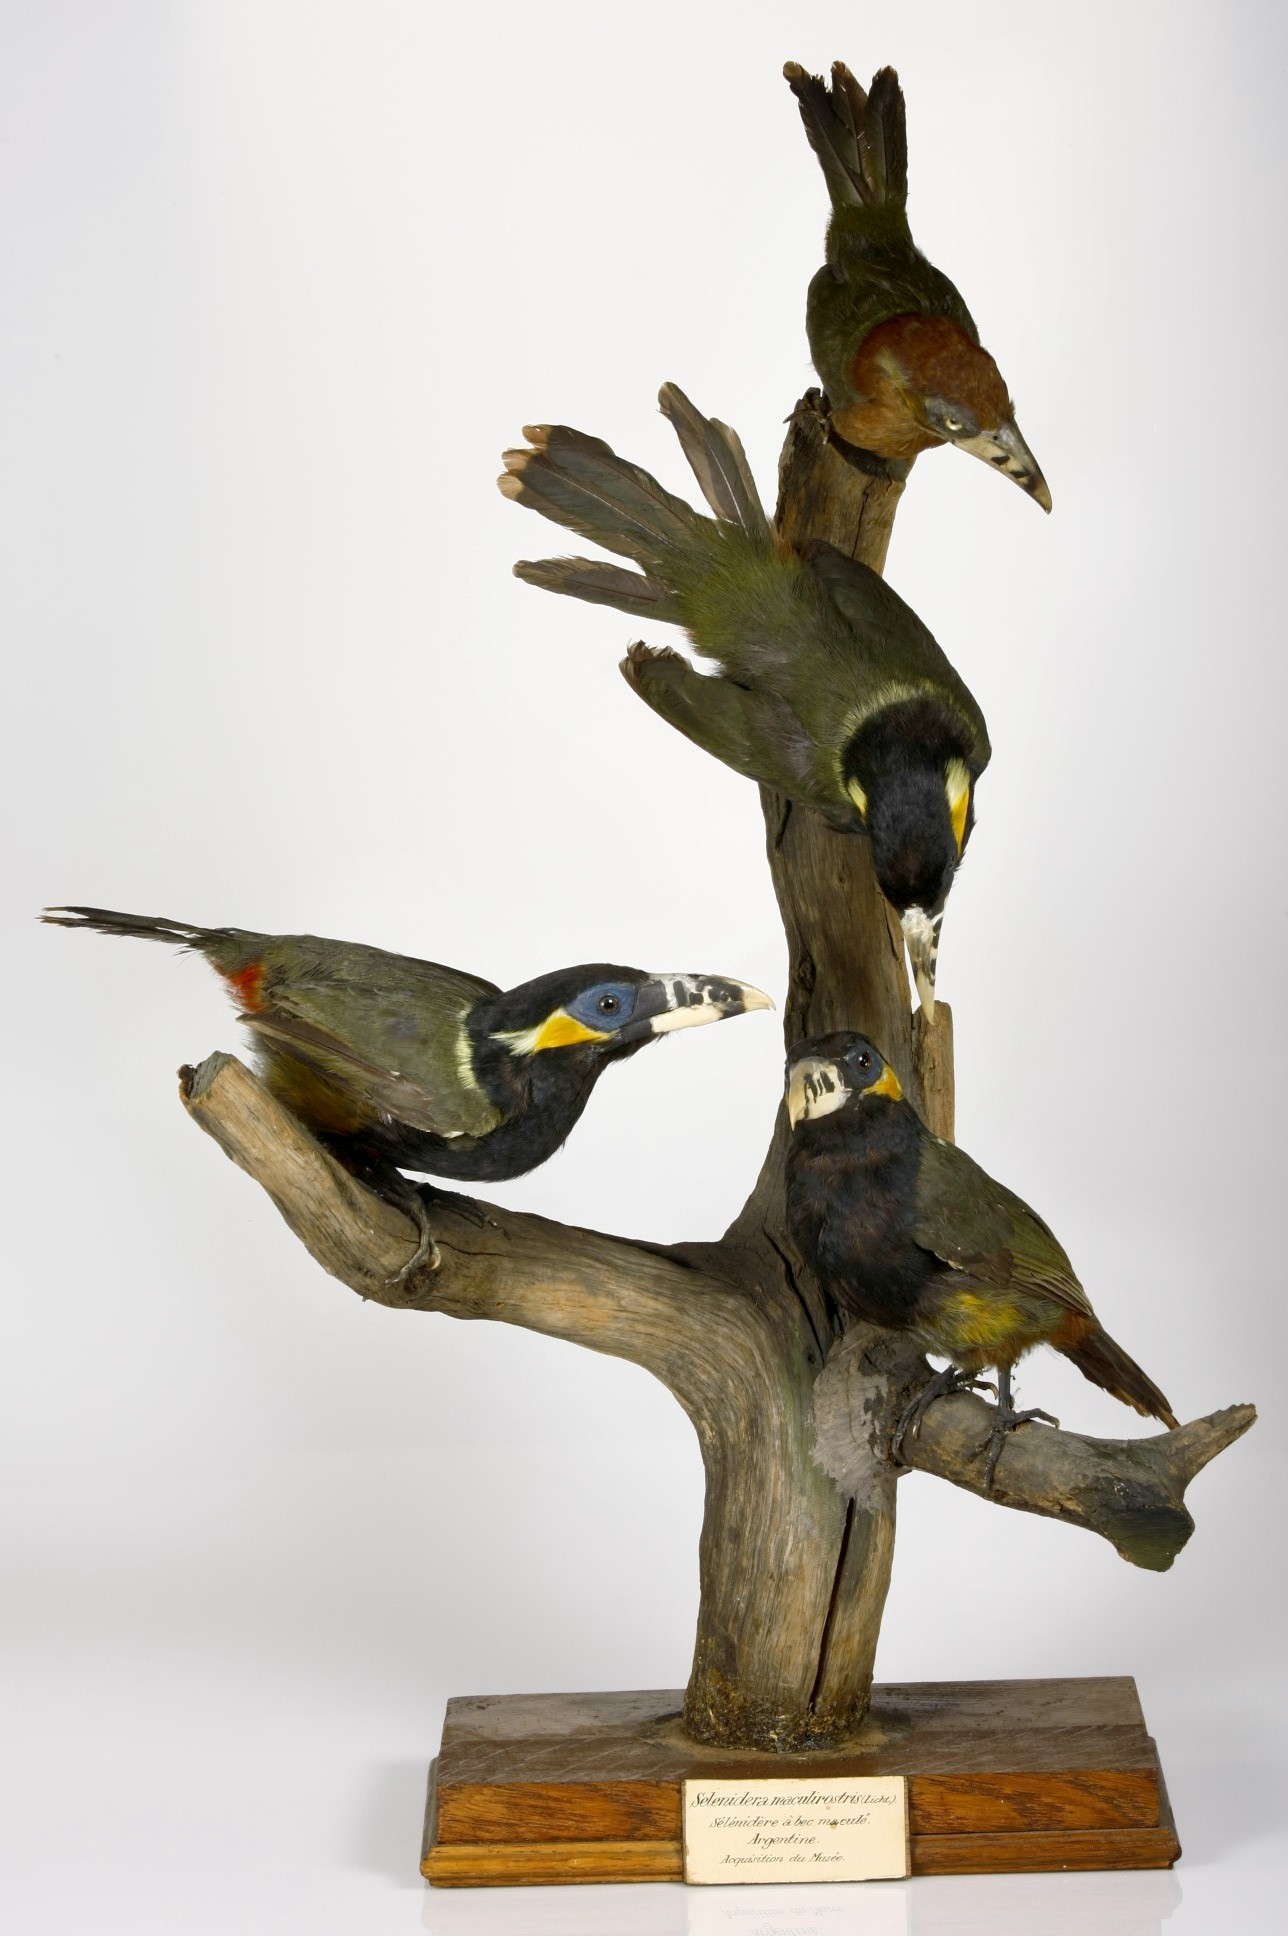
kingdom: Animalia
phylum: Chordata
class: Aves
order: Piciformes
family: Ramphastidae
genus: Selenidera
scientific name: Selenidera maculirostris
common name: Spot-billed toucanet
